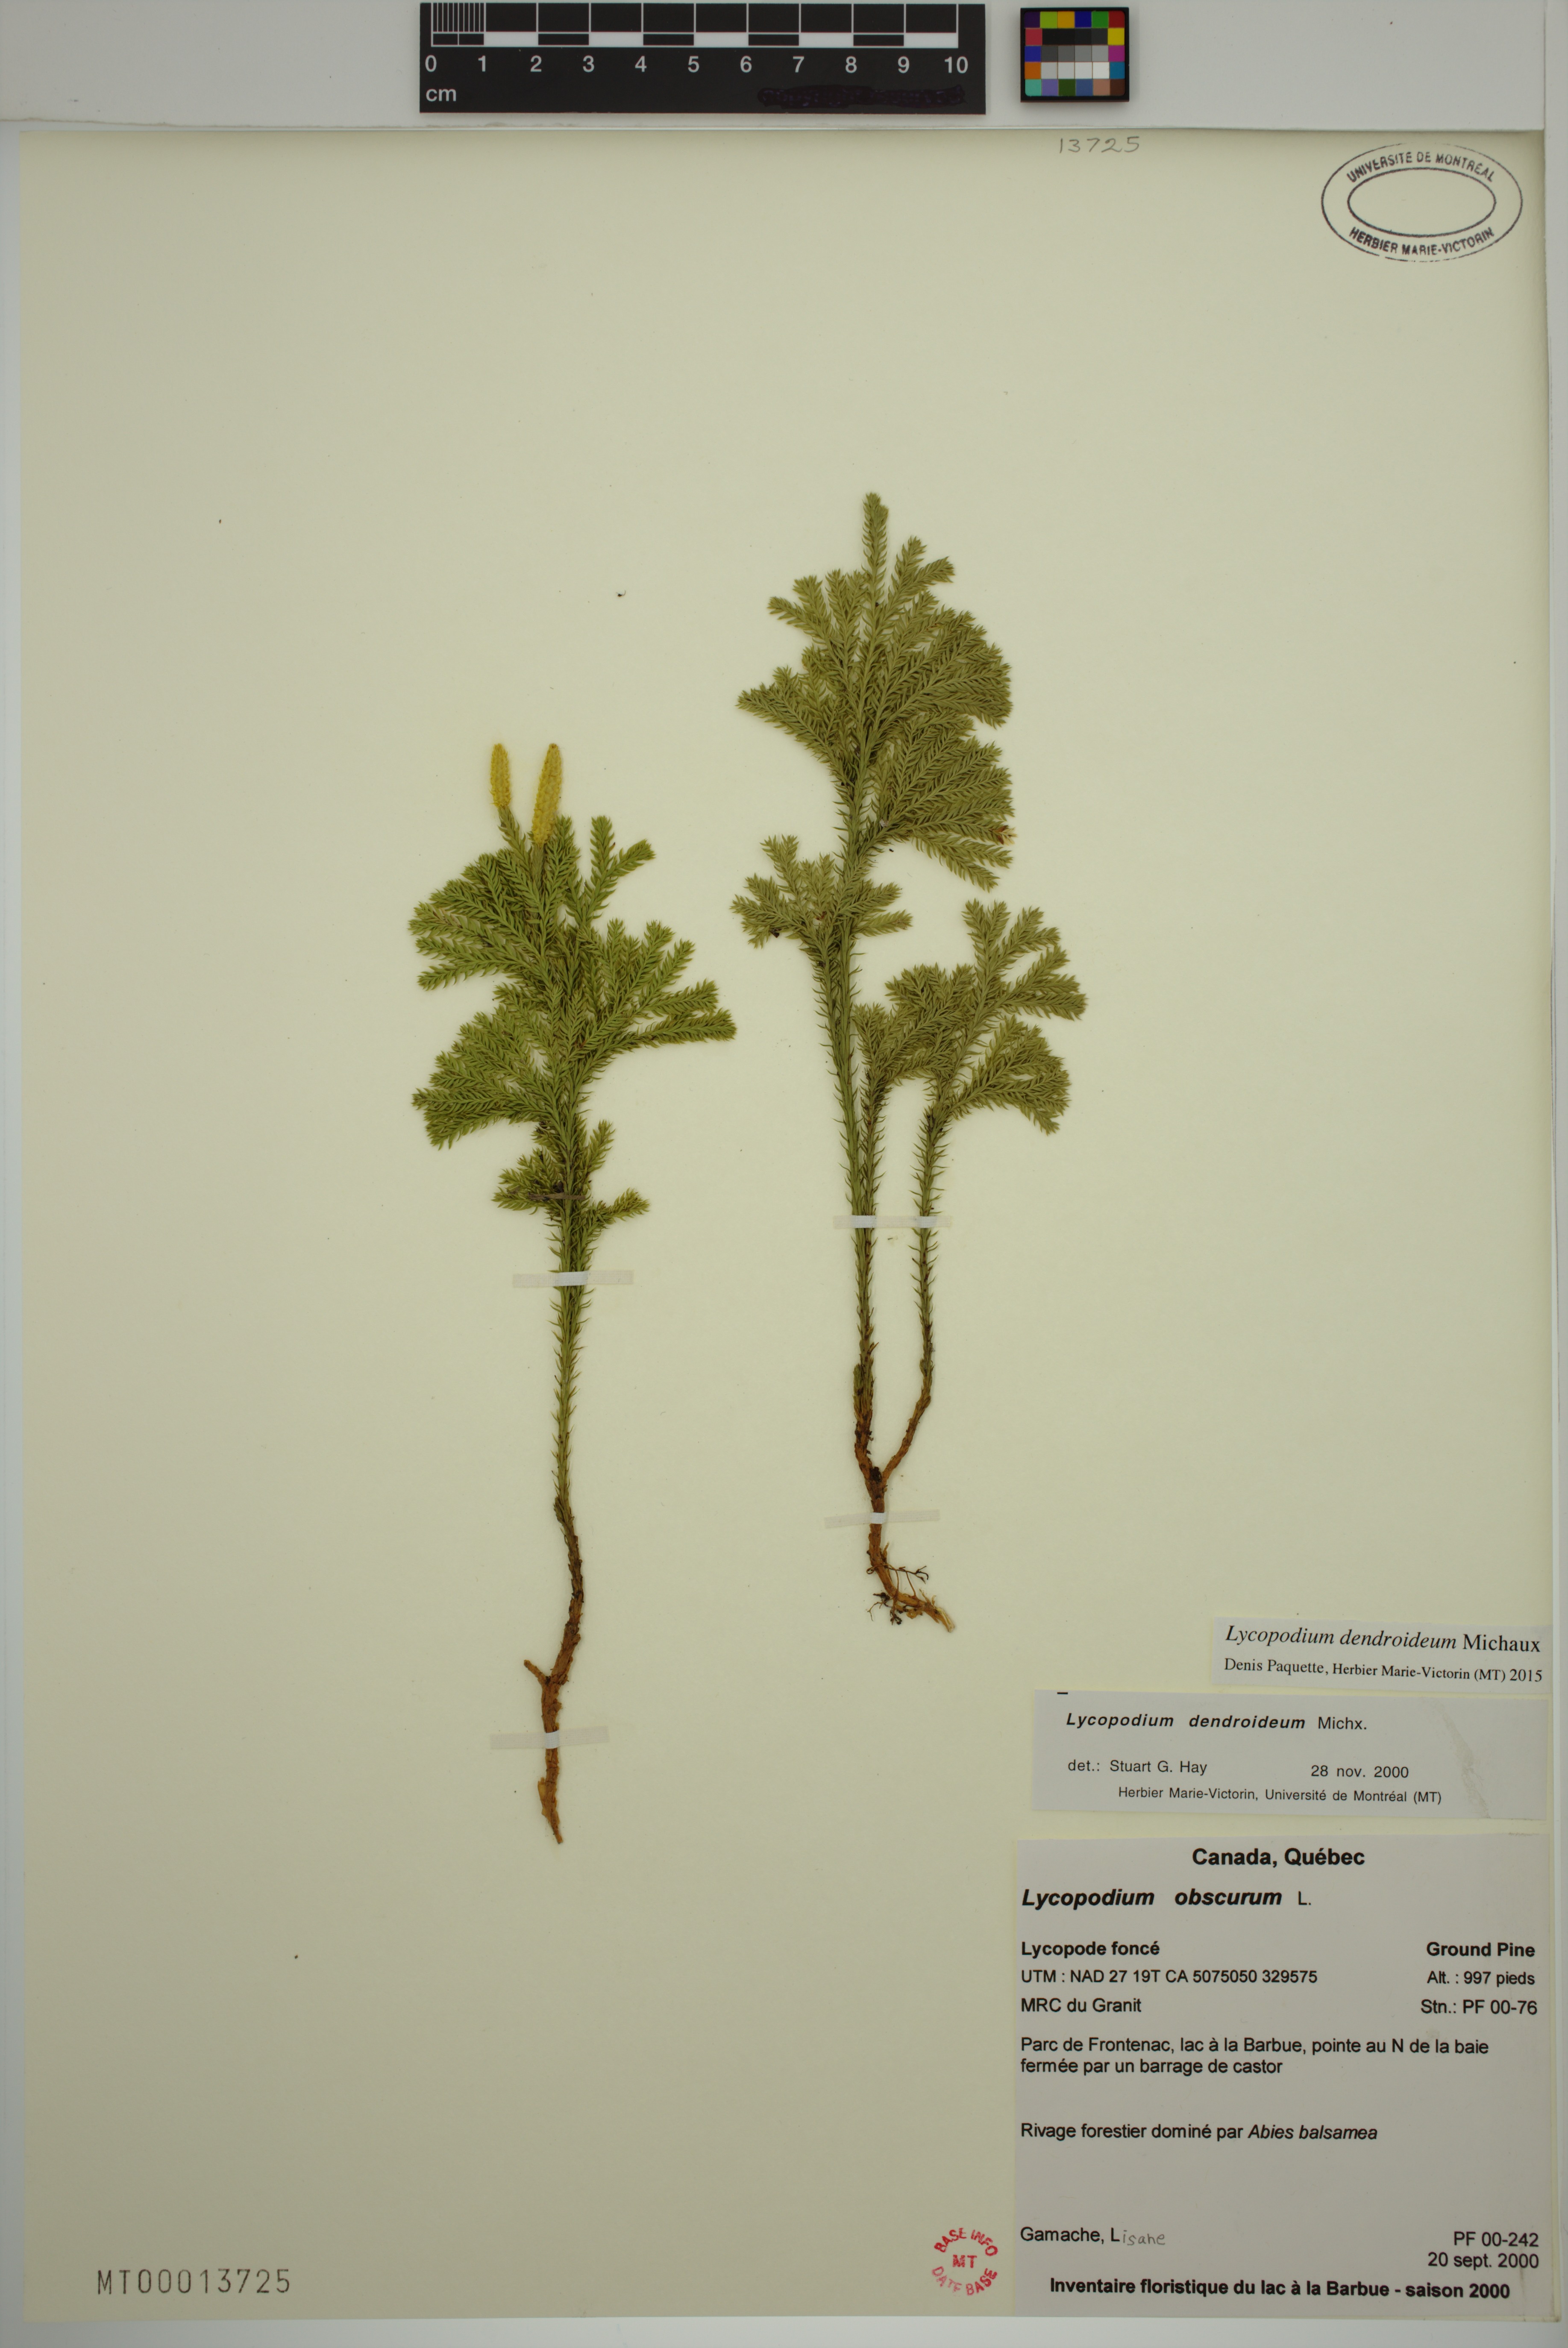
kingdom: Plantae
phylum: Tracheophyta
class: Lycopodiopsida
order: Lycopodiales
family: Lycopodiaceae
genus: Dendrolycopodium
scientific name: Dendrolycopodium dendroideum
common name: Northern tree-clubmoss
